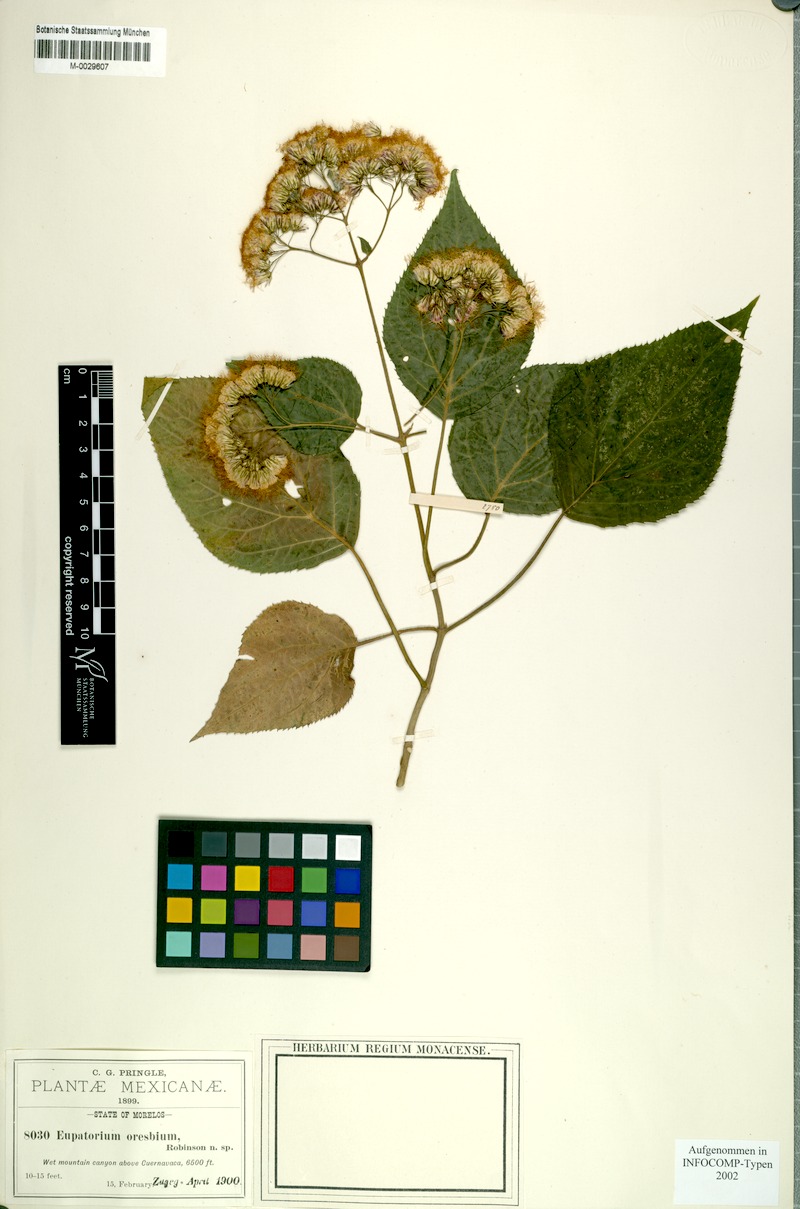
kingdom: Plantae
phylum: Tracheophyta
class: Magnoliopsida
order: Asterales
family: Asteraceae
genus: Bartlettina
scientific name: Bartlettina oresbia
